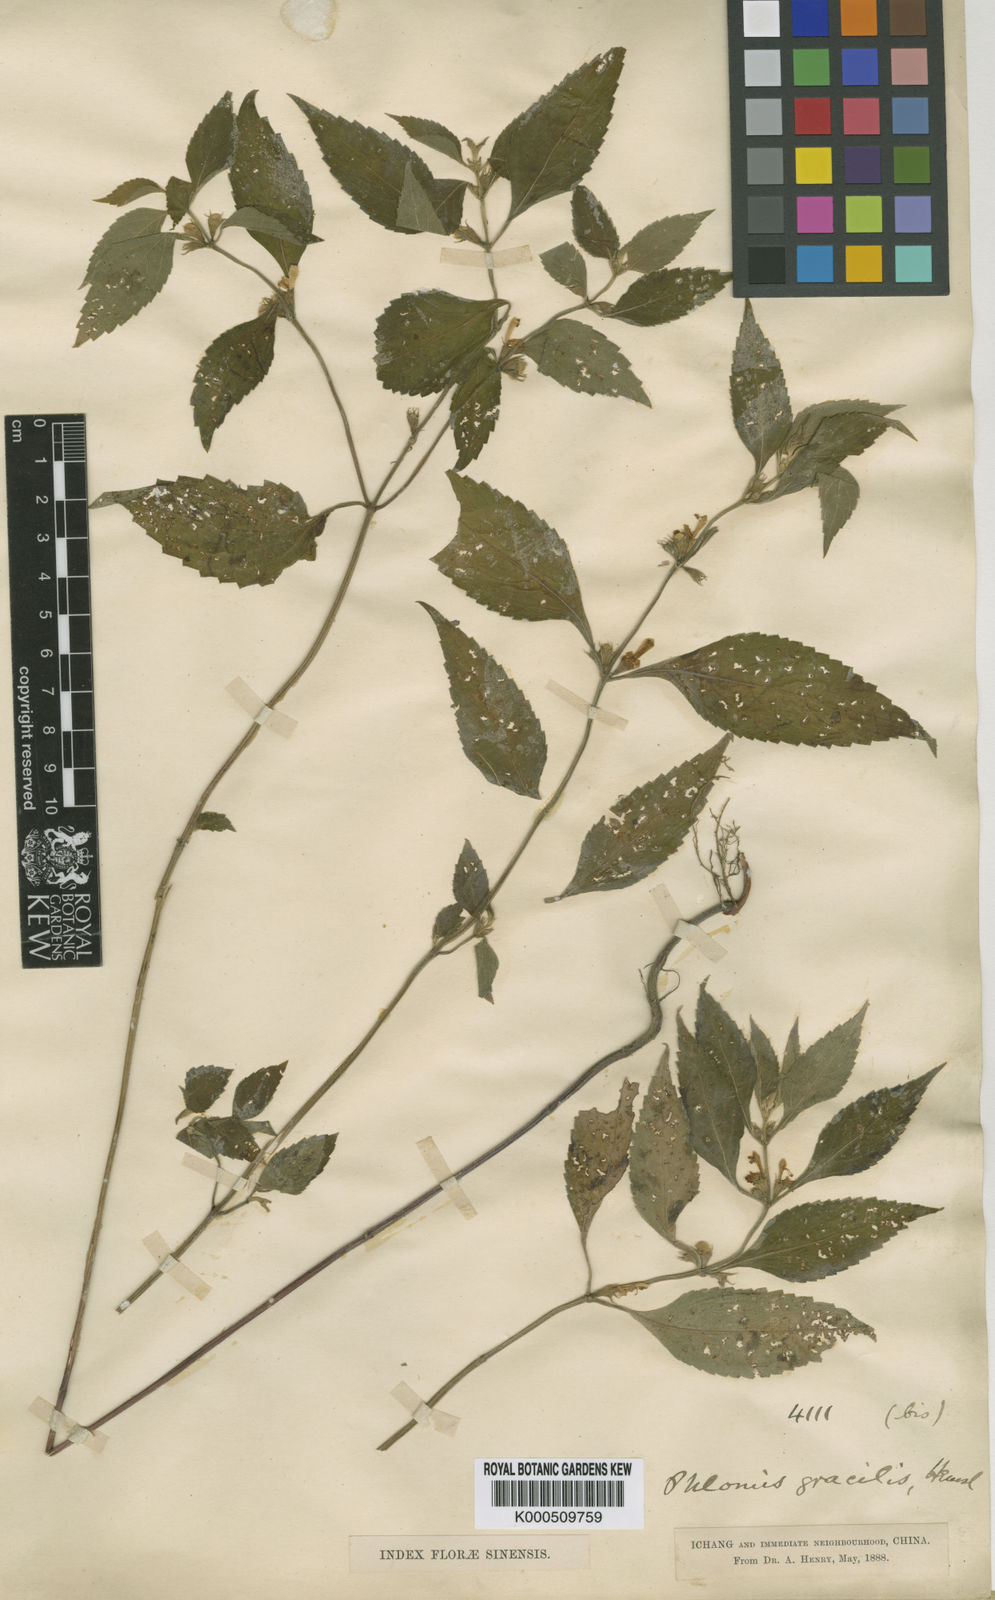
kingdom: Plantae
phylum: Tracheophyta
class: Magnoliopsida
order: Lamiales
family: Lamiaceae
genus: Paraphlomis
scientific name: Paraphlomis
